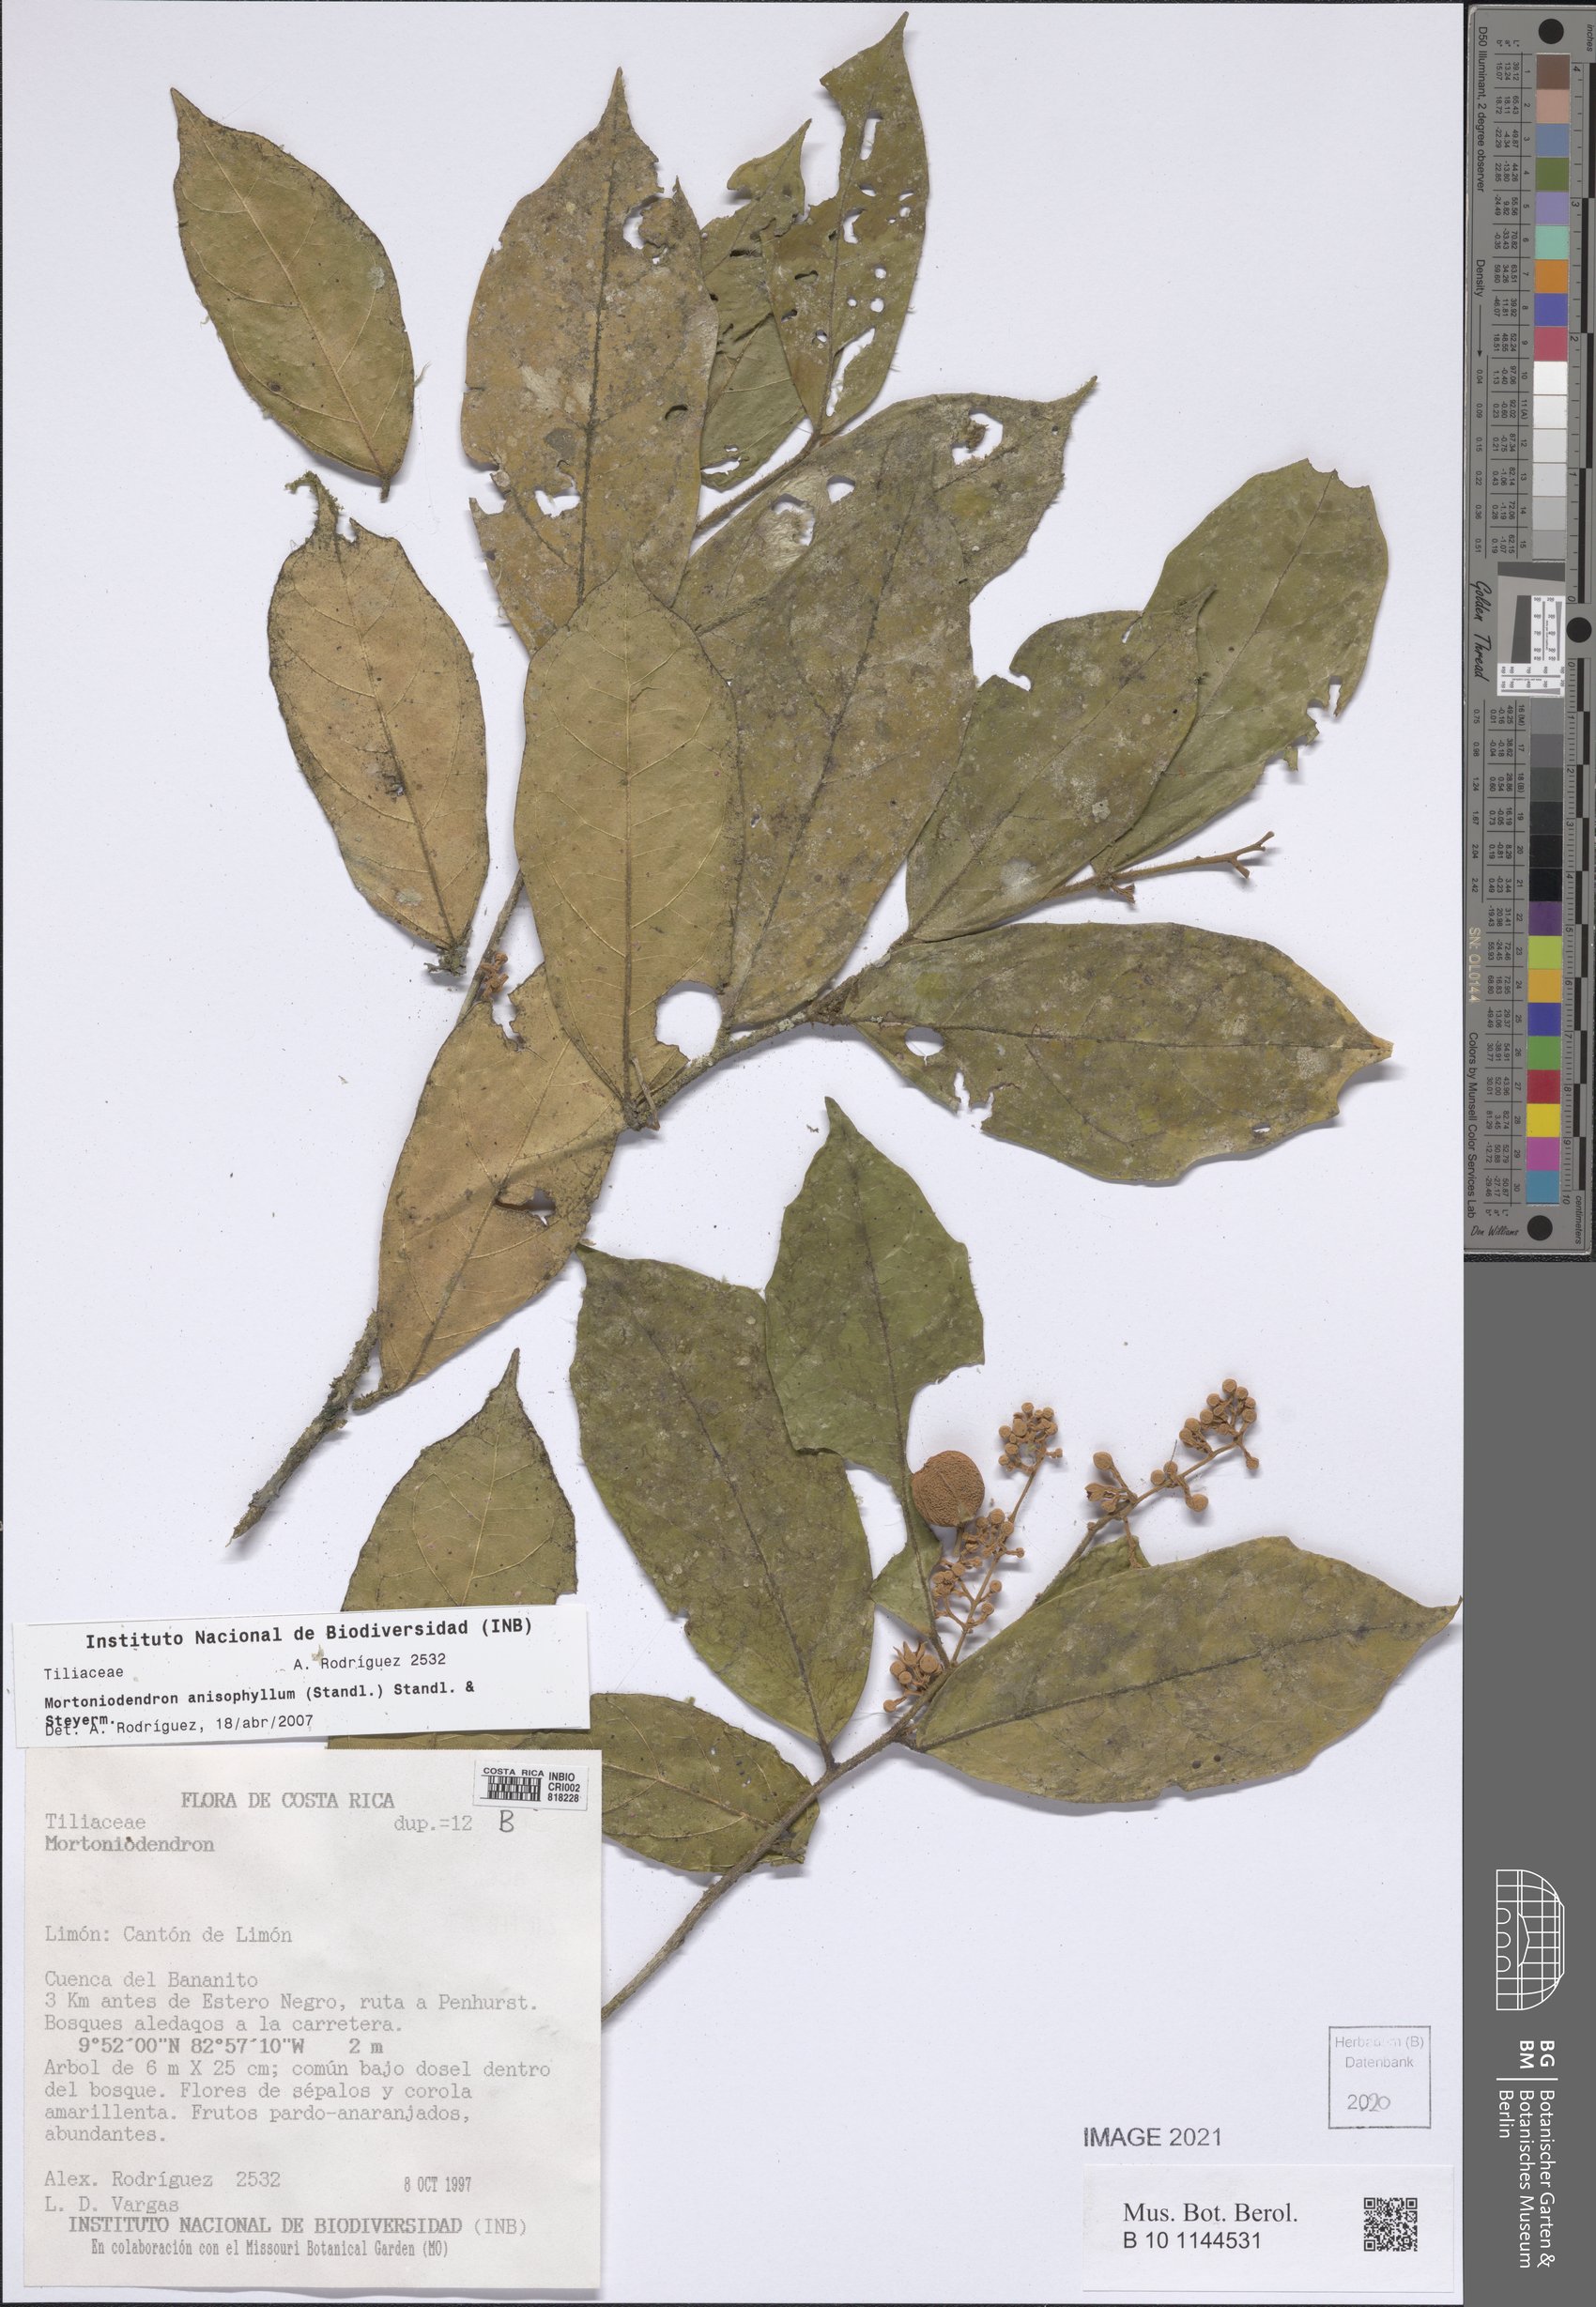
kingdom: Plantae
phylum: Tracheophyta
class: Magnoliopsida
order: Malvales
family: Malvaceae
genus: Mortoniodendron
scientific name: Mortoniodendron anisophyllum
